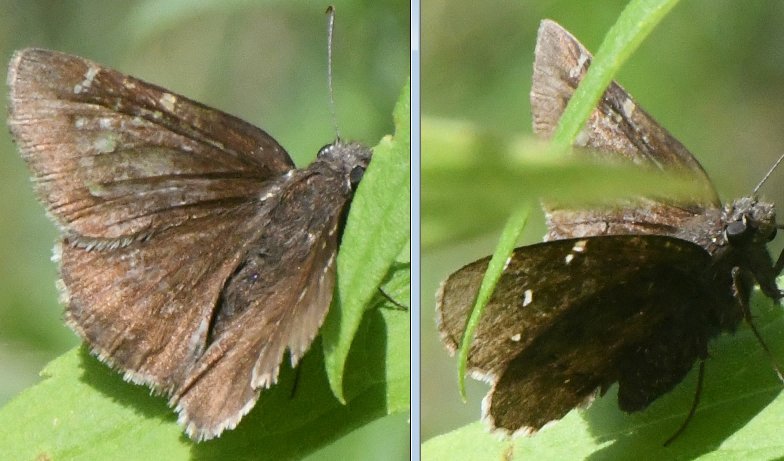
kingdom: Animalia
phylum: Arthropoda
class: Insecta
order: Lepidoptera
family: Hesperiidae
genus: Vernia
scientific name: Vernia verna
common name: Little Glassywing
